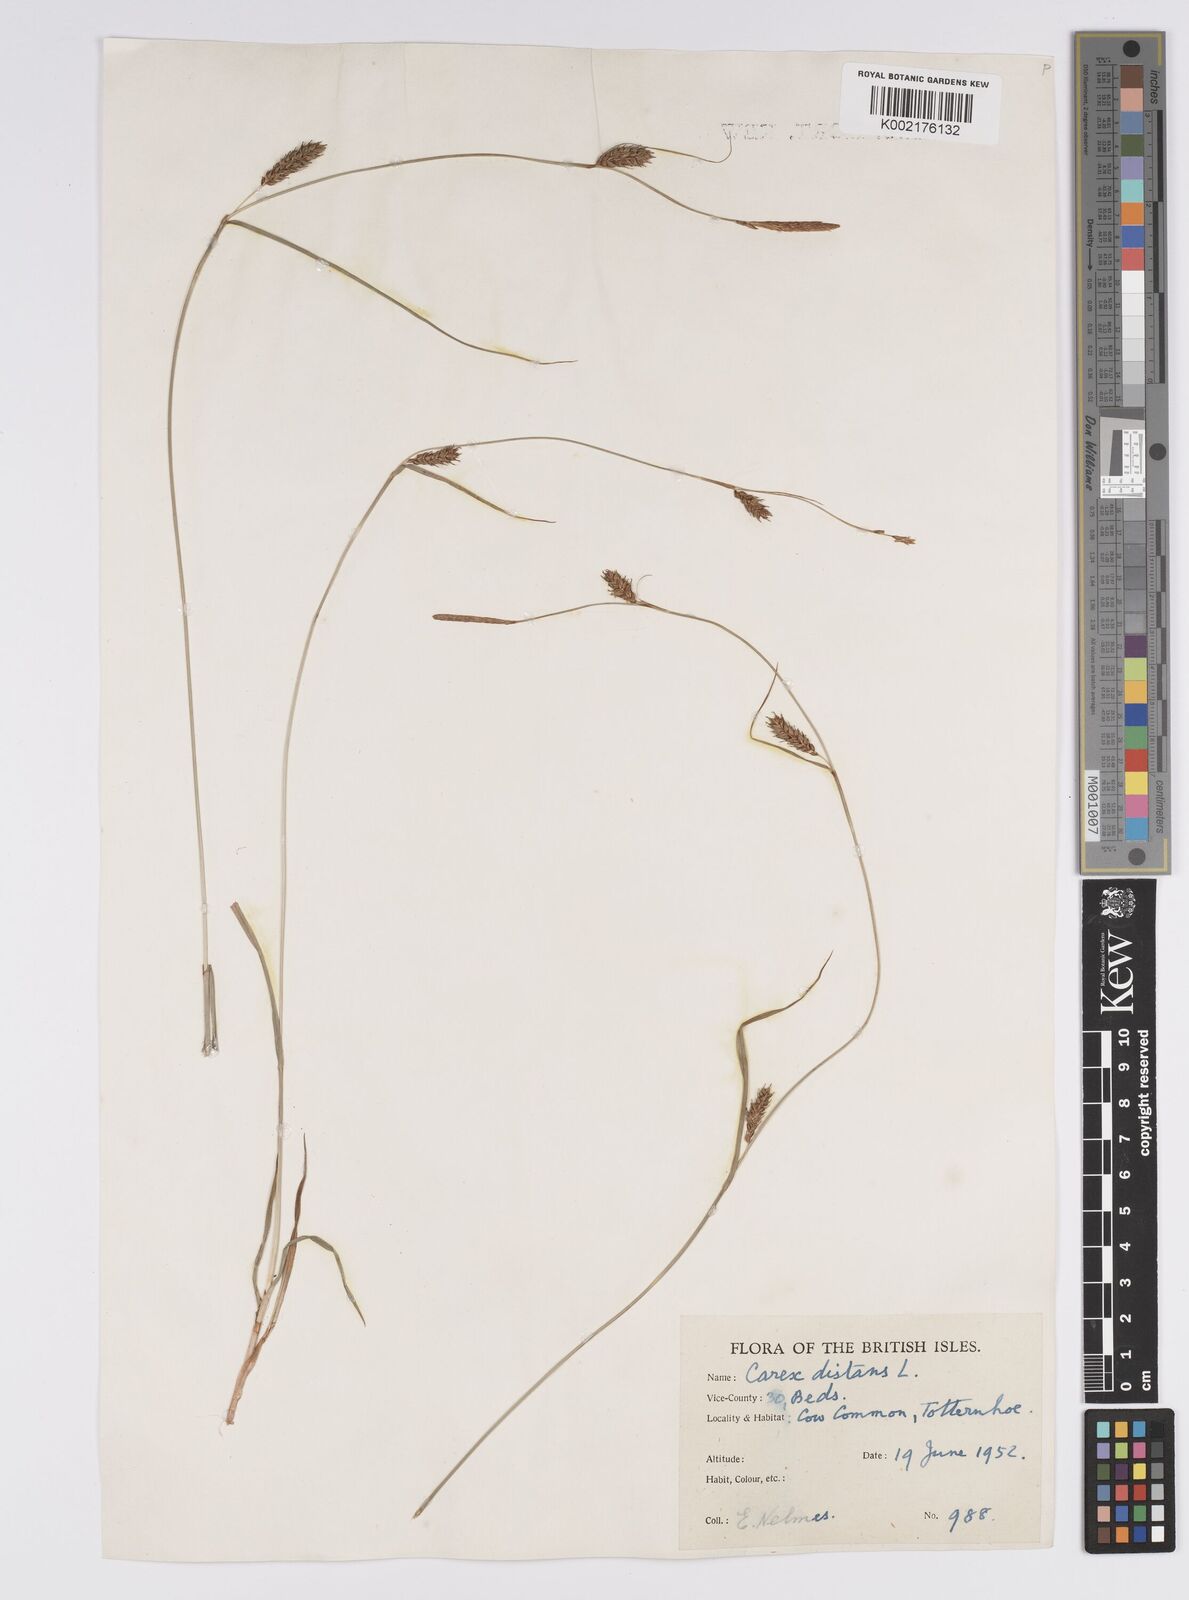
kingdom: Plantae
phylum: Tracheophyta
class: Liliopsida
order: Poales
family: Cyperaceae
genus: Carex
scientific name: Carex distans
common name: Distant sedge
